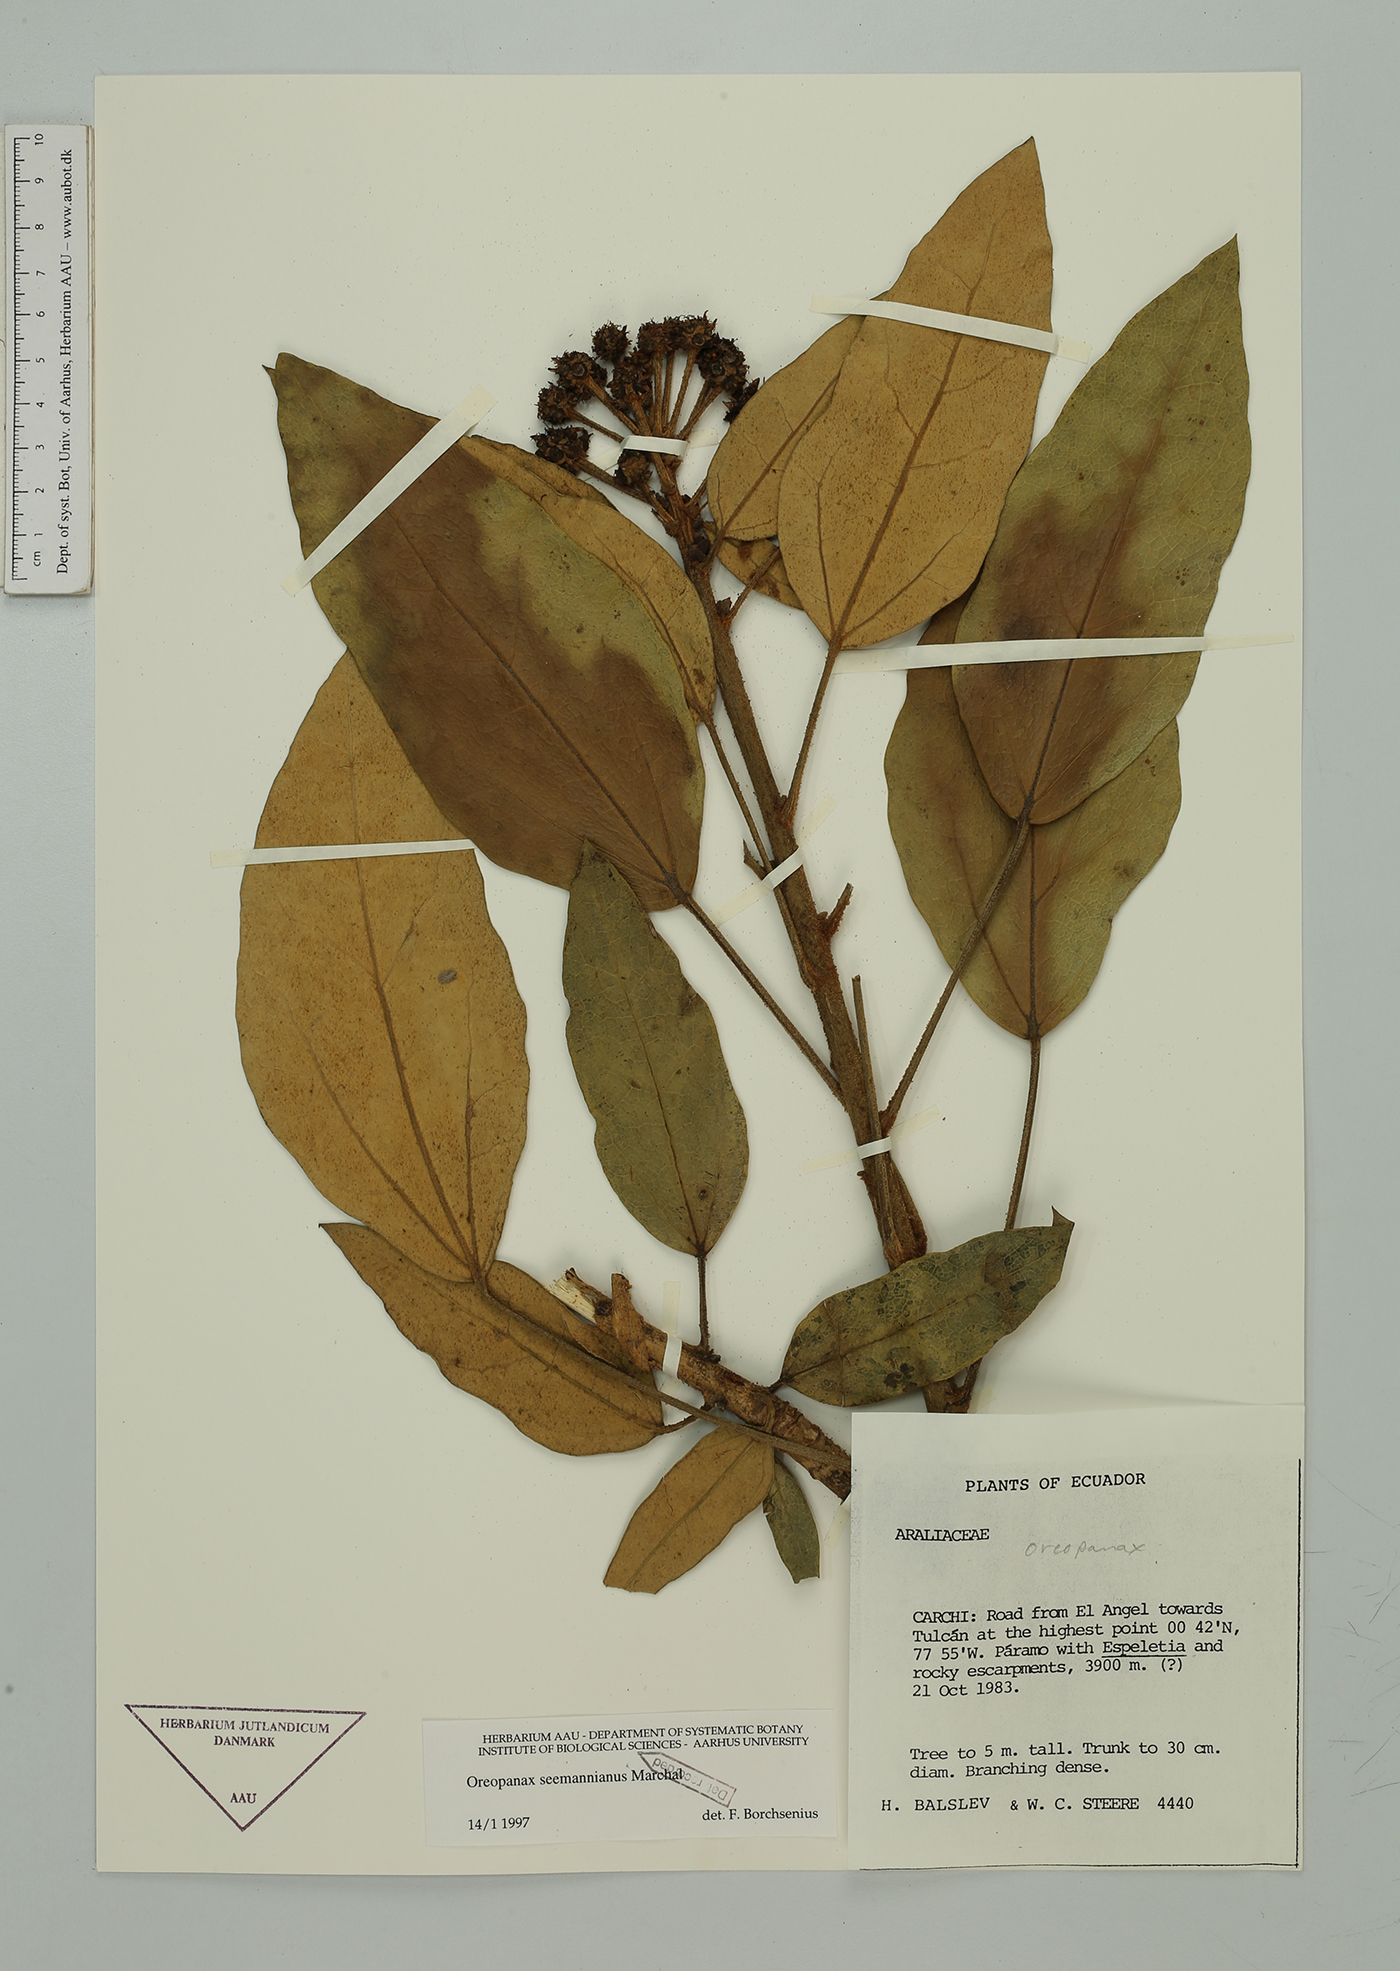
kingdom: Plantae
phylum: Tracheophyta
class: Magnoliopsida
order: Apiales
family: Araliaceae
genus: Oreopanax
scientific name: Oreopanax seemannianus
